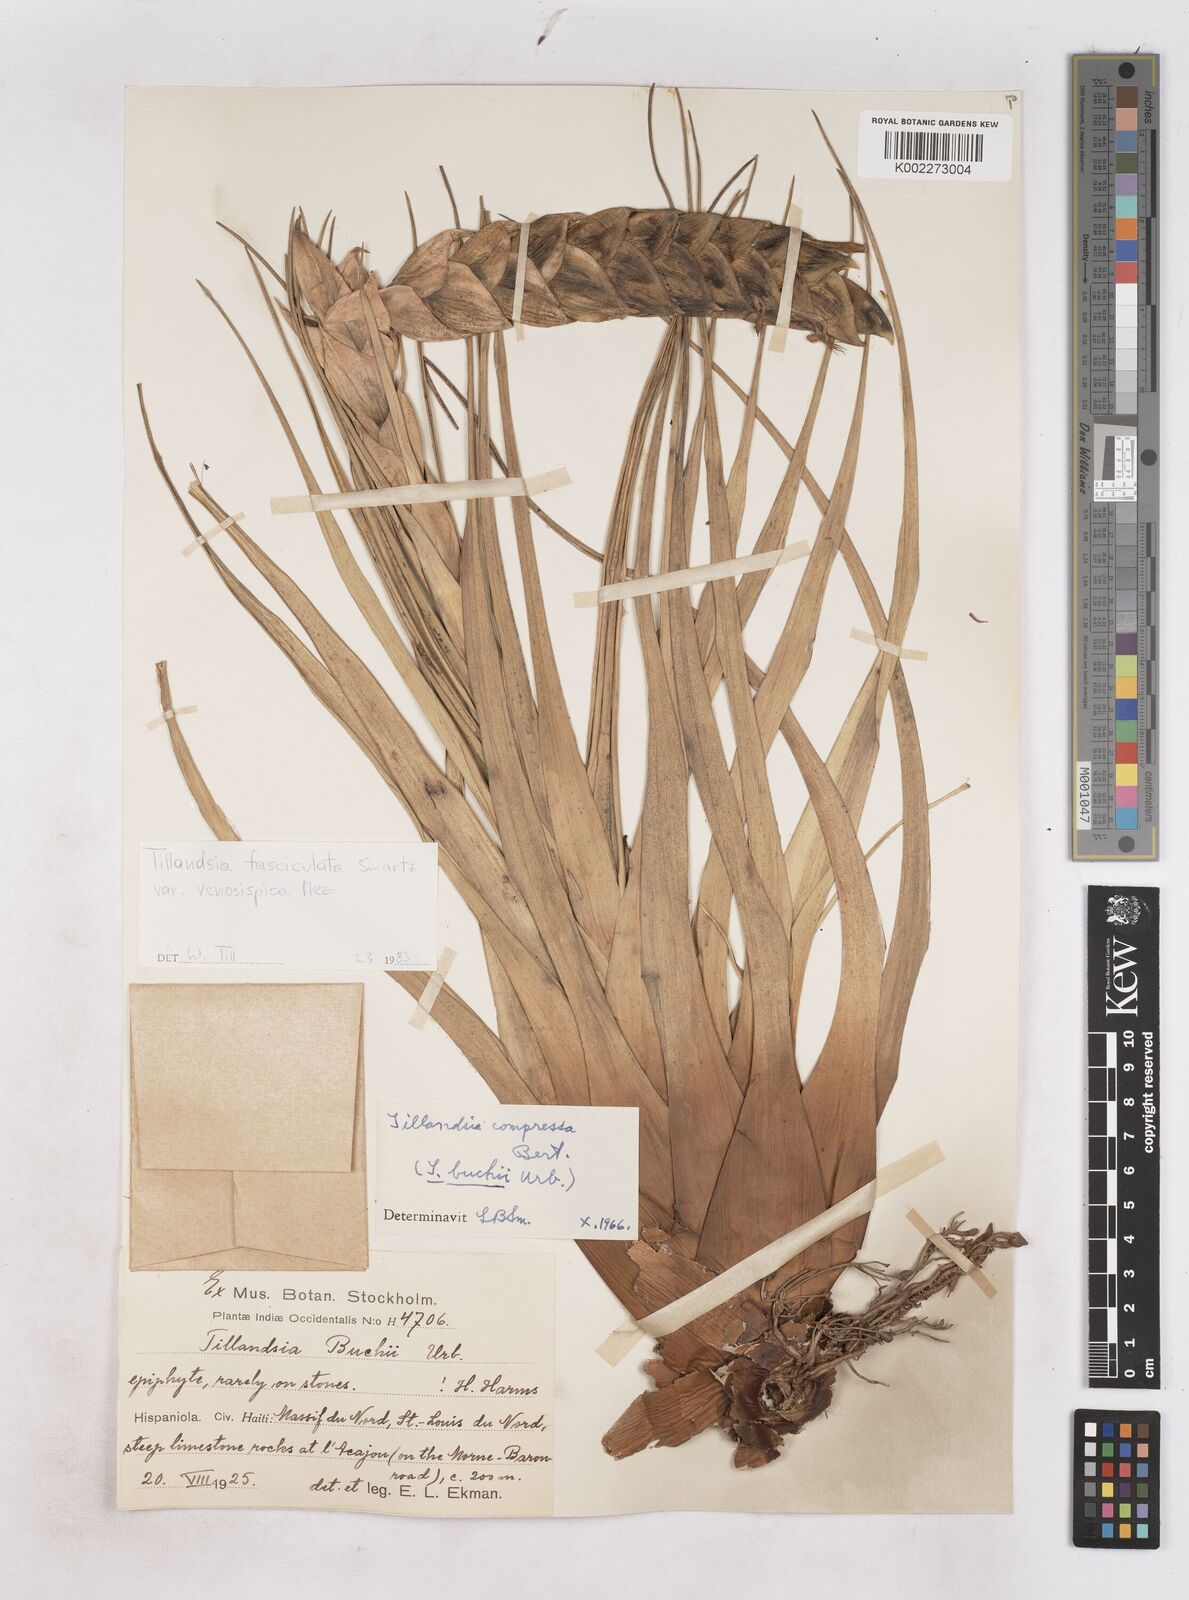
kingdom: Plantae
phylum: Tracheophyta
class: Liliopsida
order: Poales
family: Bromeliaceae
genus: Tillandsia
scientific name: Tillandsia compressa
